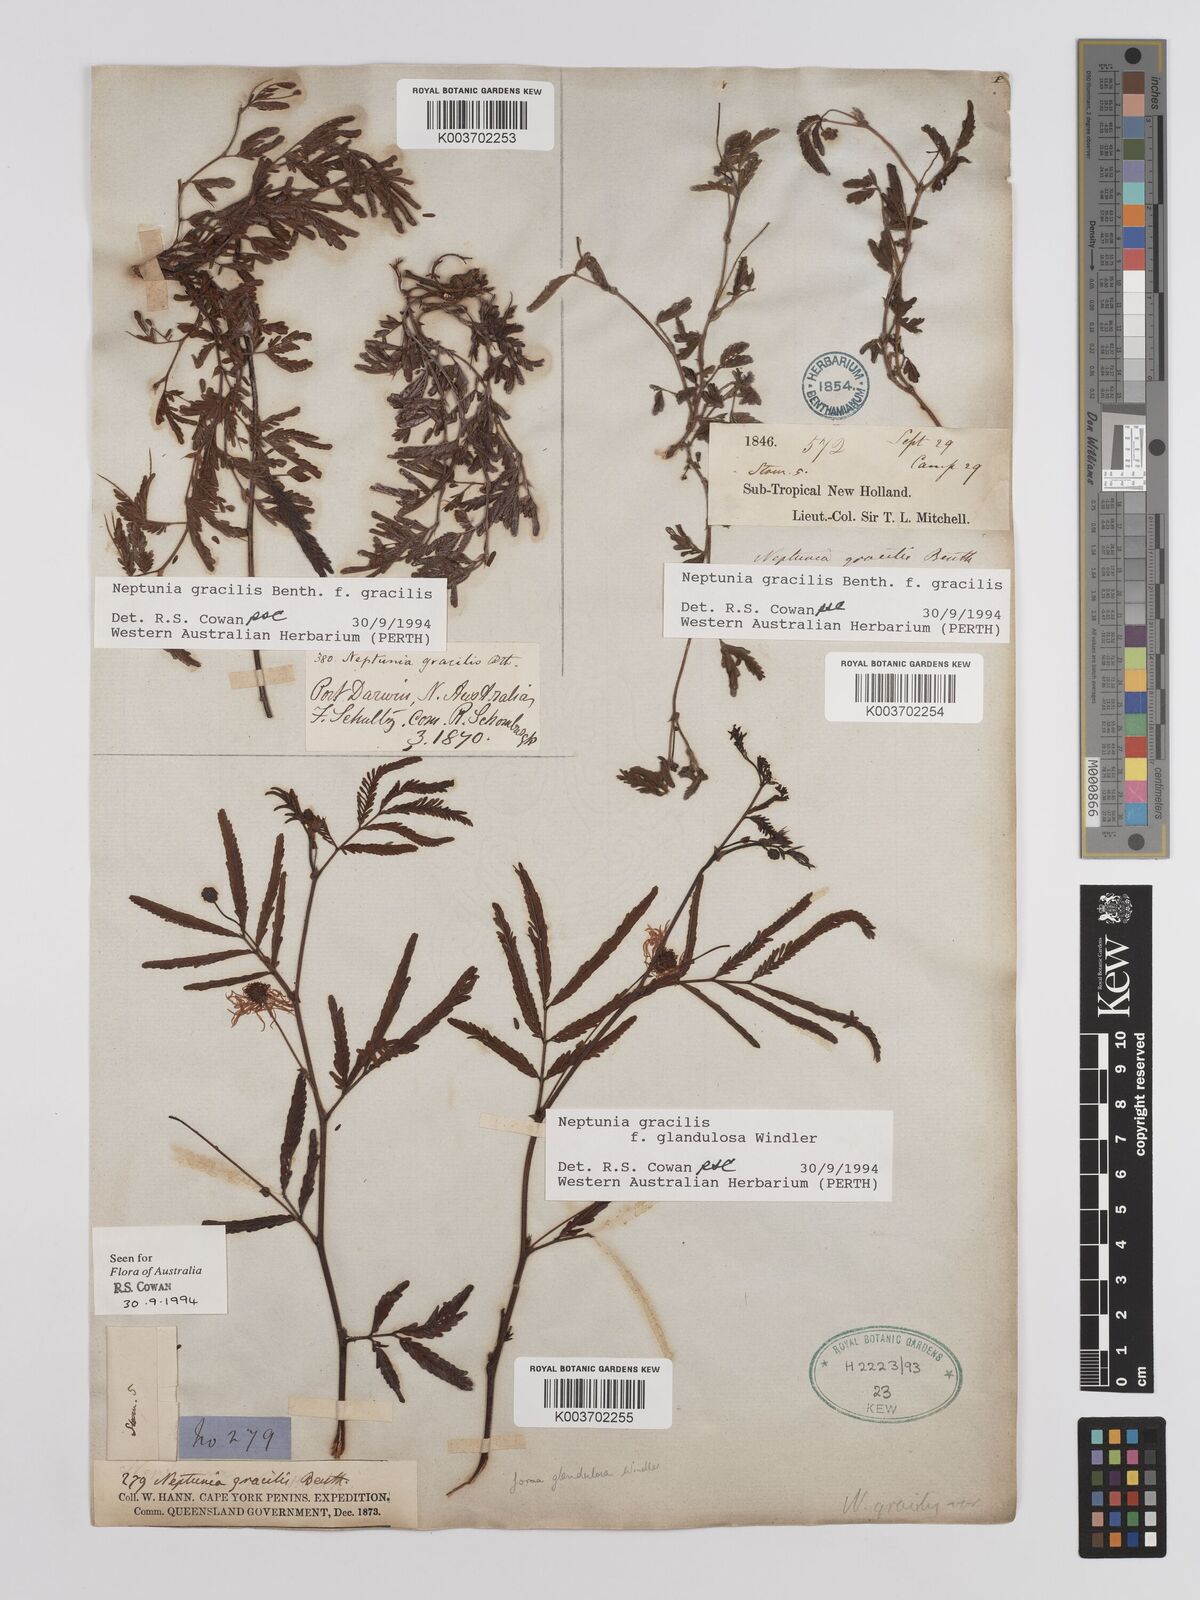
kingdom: Plantae
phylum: Tracheophyta
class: Magnoliopsida
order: Fabales
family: Fabaceae
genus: Neptunia
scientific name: Neptunia gracilis
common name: Sensitive-plant
